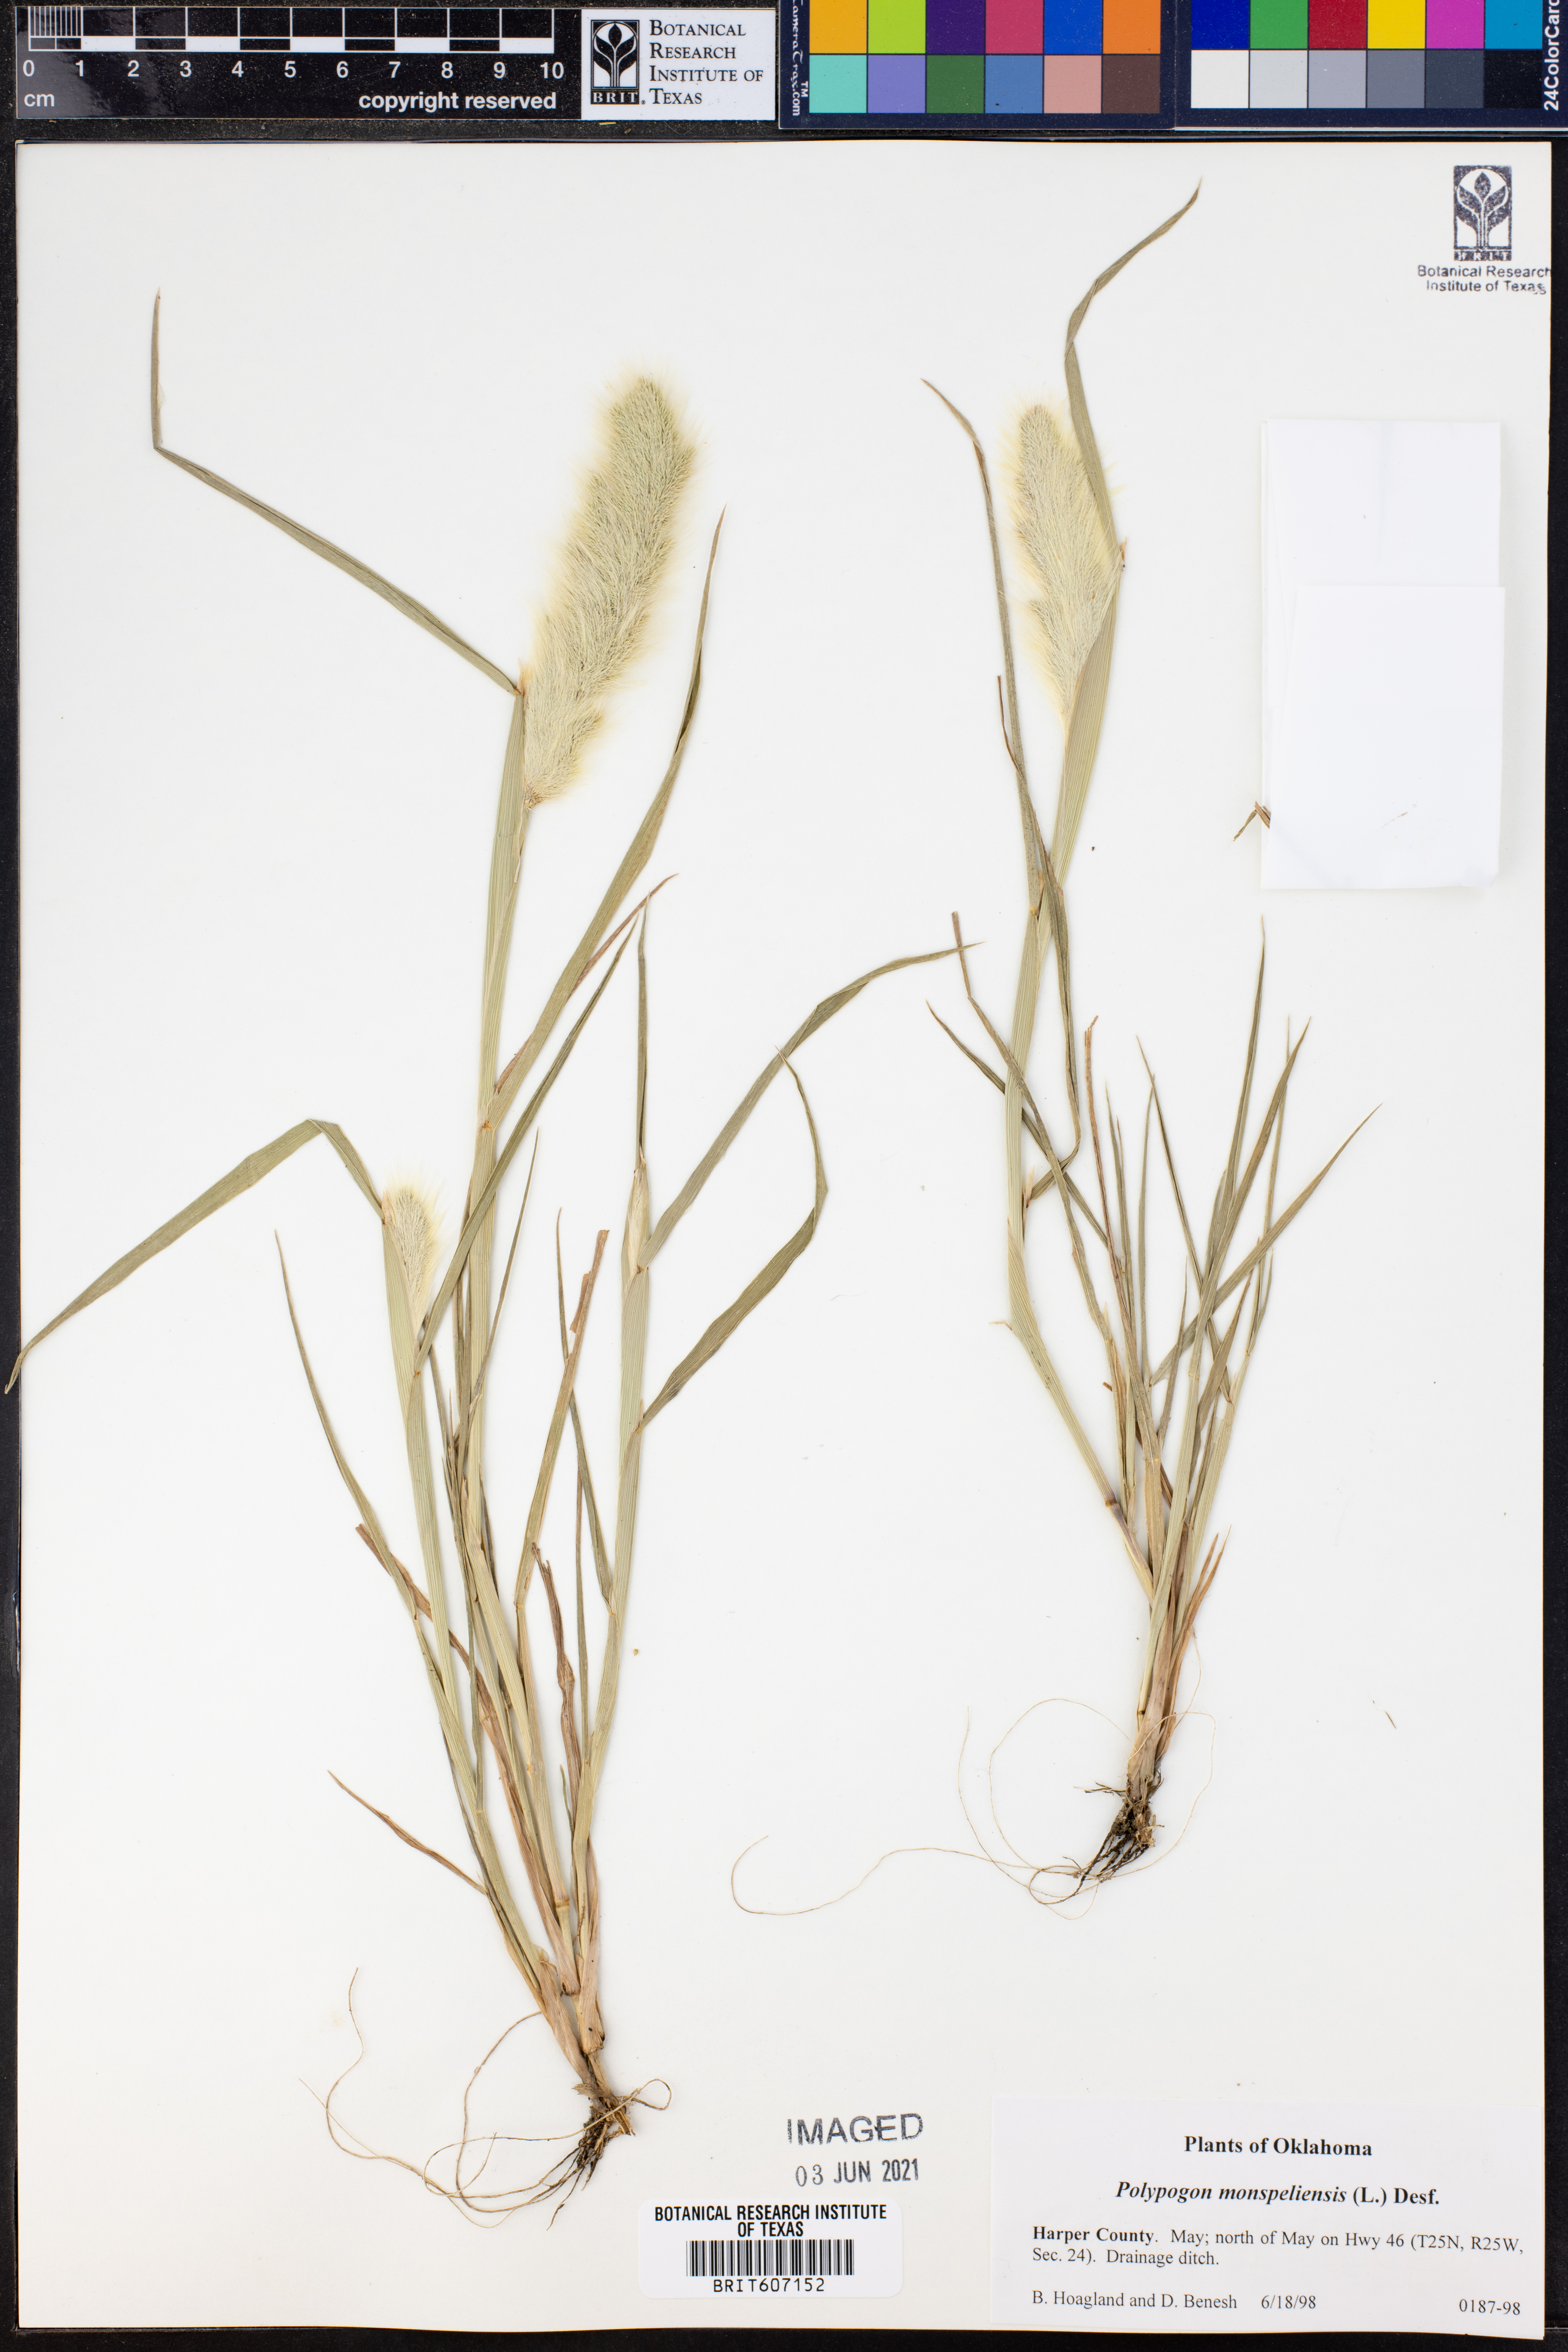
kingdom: Plantae
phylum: Tracheophyta
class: Liliopsida
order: Poales
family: Poaceae
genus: Polypogon
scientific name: Polypogon monspeliensis
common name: Annual rabbitsfoot grass
